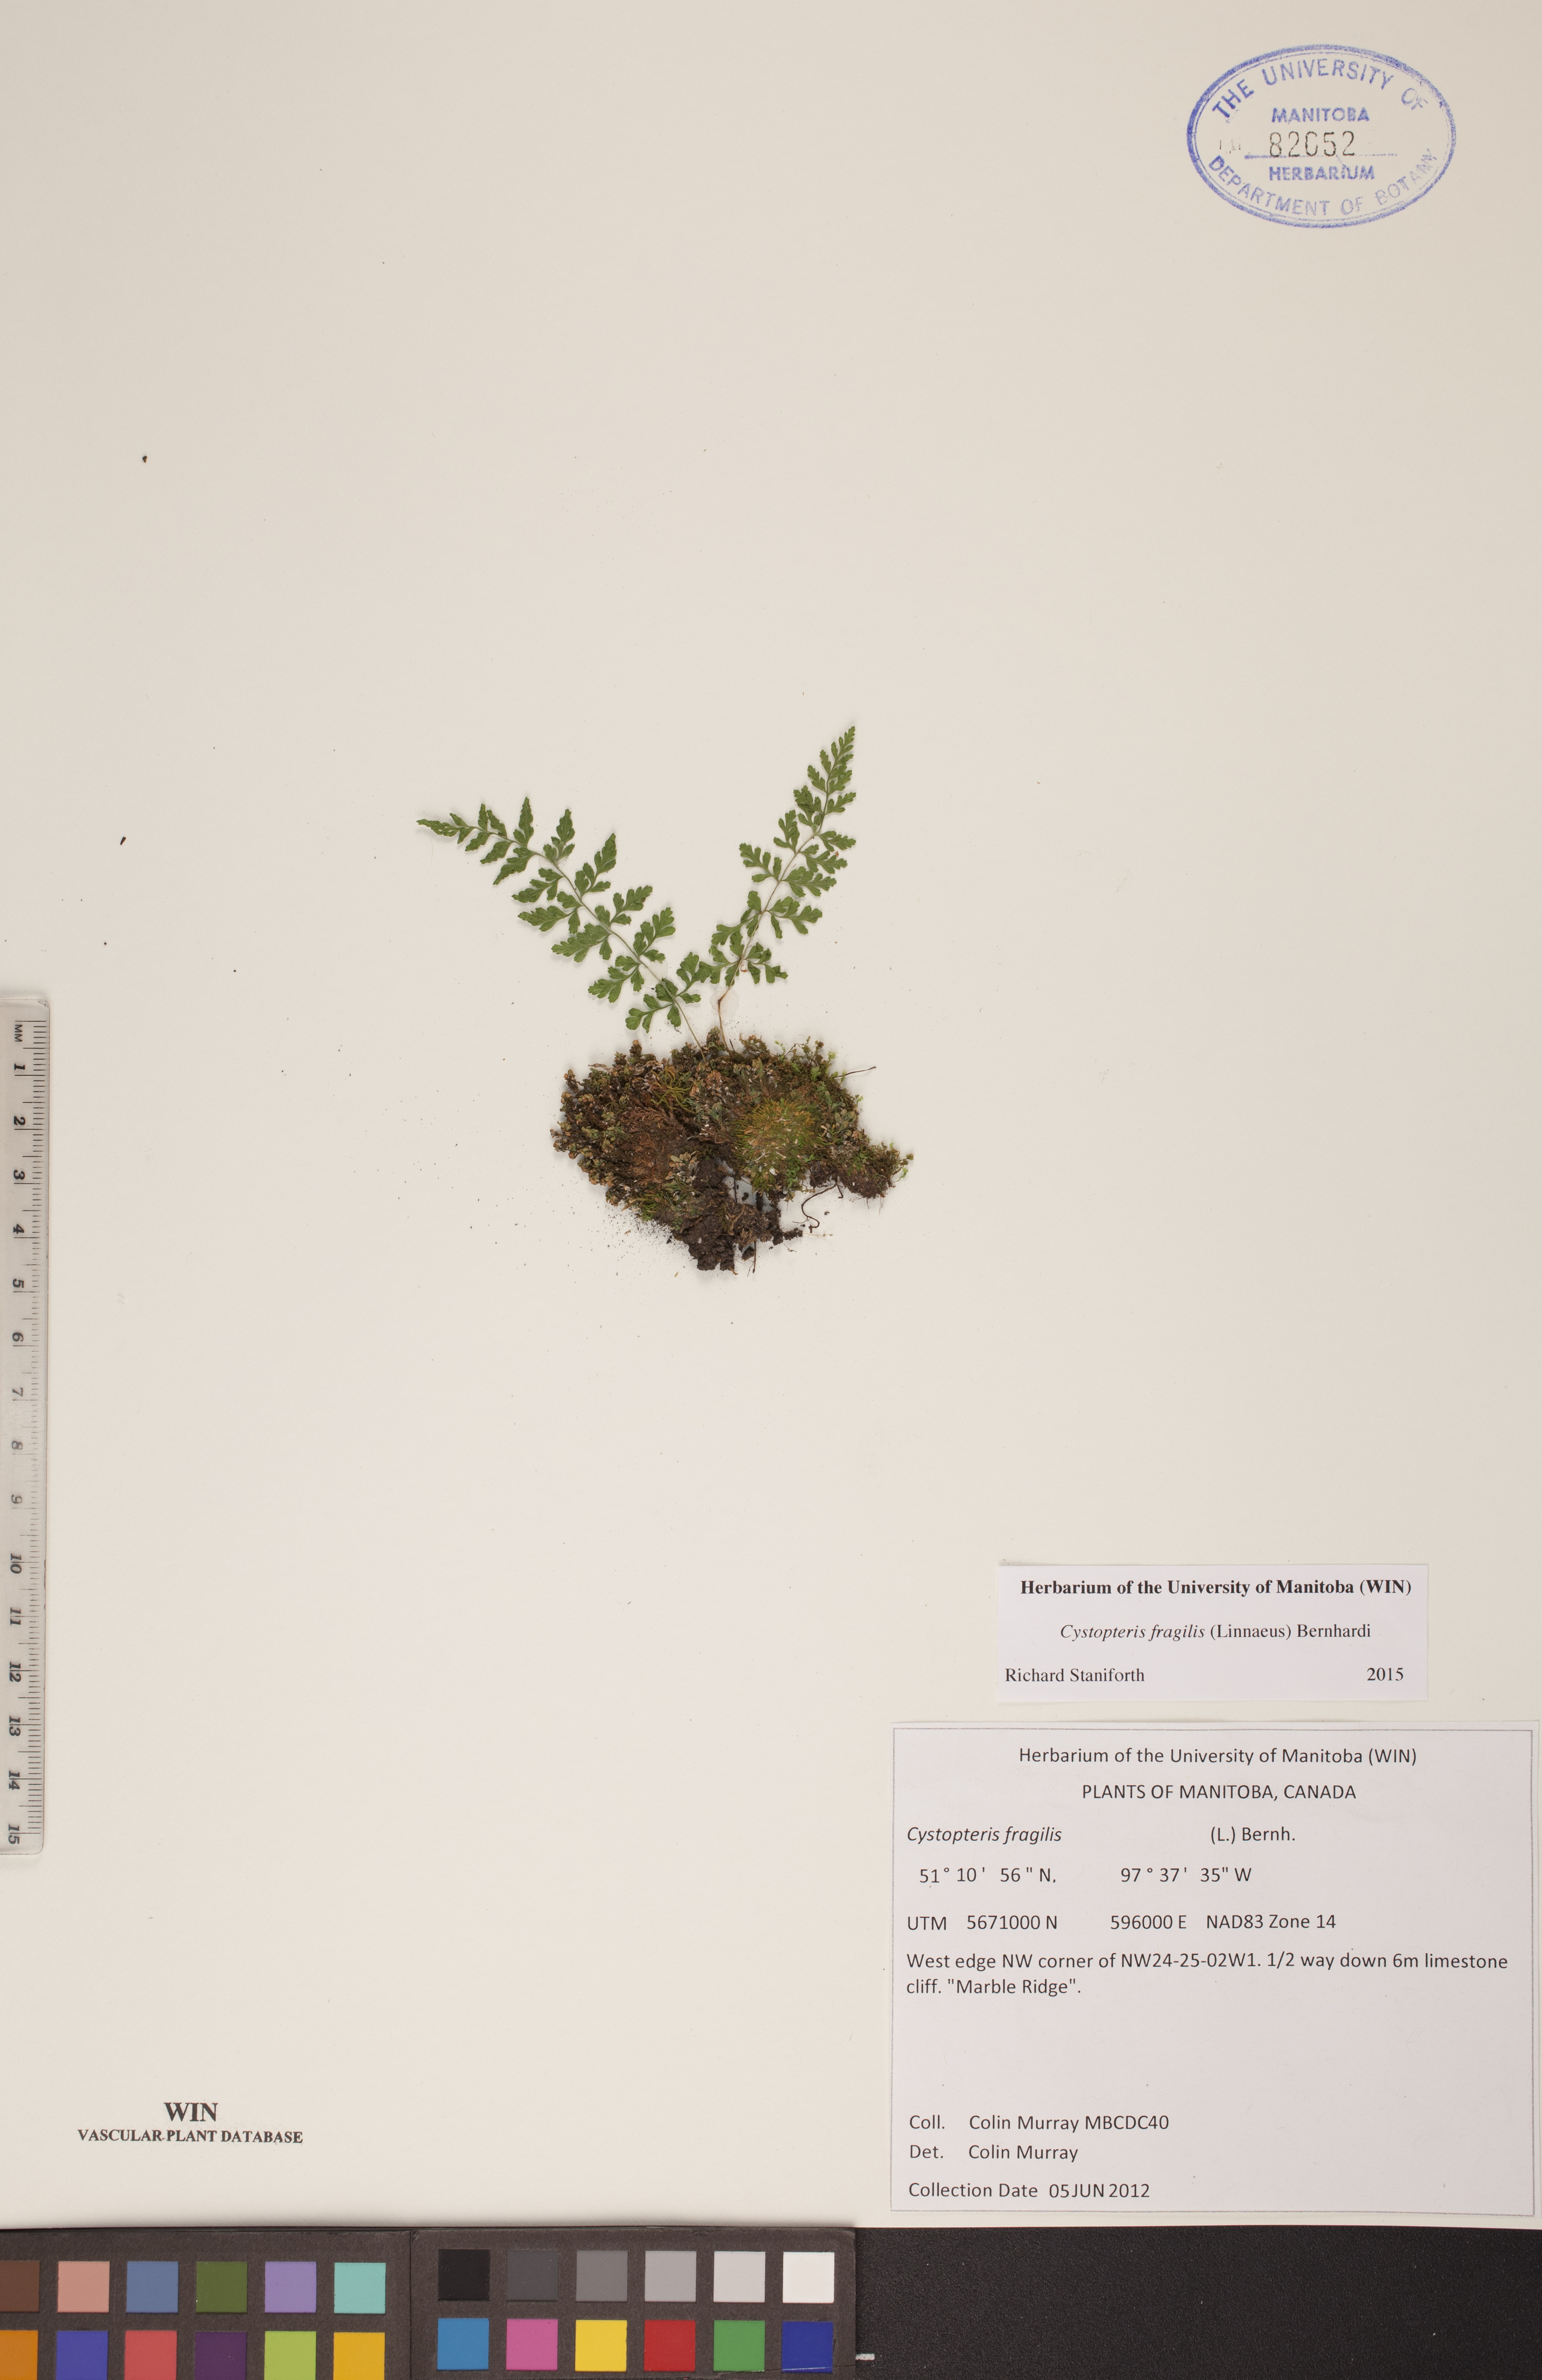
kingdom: Plantae
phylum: Tracheophyta
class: Polypodiopsida
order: Polypodiales
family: Cystopteridaceae
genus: Cystopteris
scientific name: Cystopteris fragilis
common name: Brittle bladder fern
